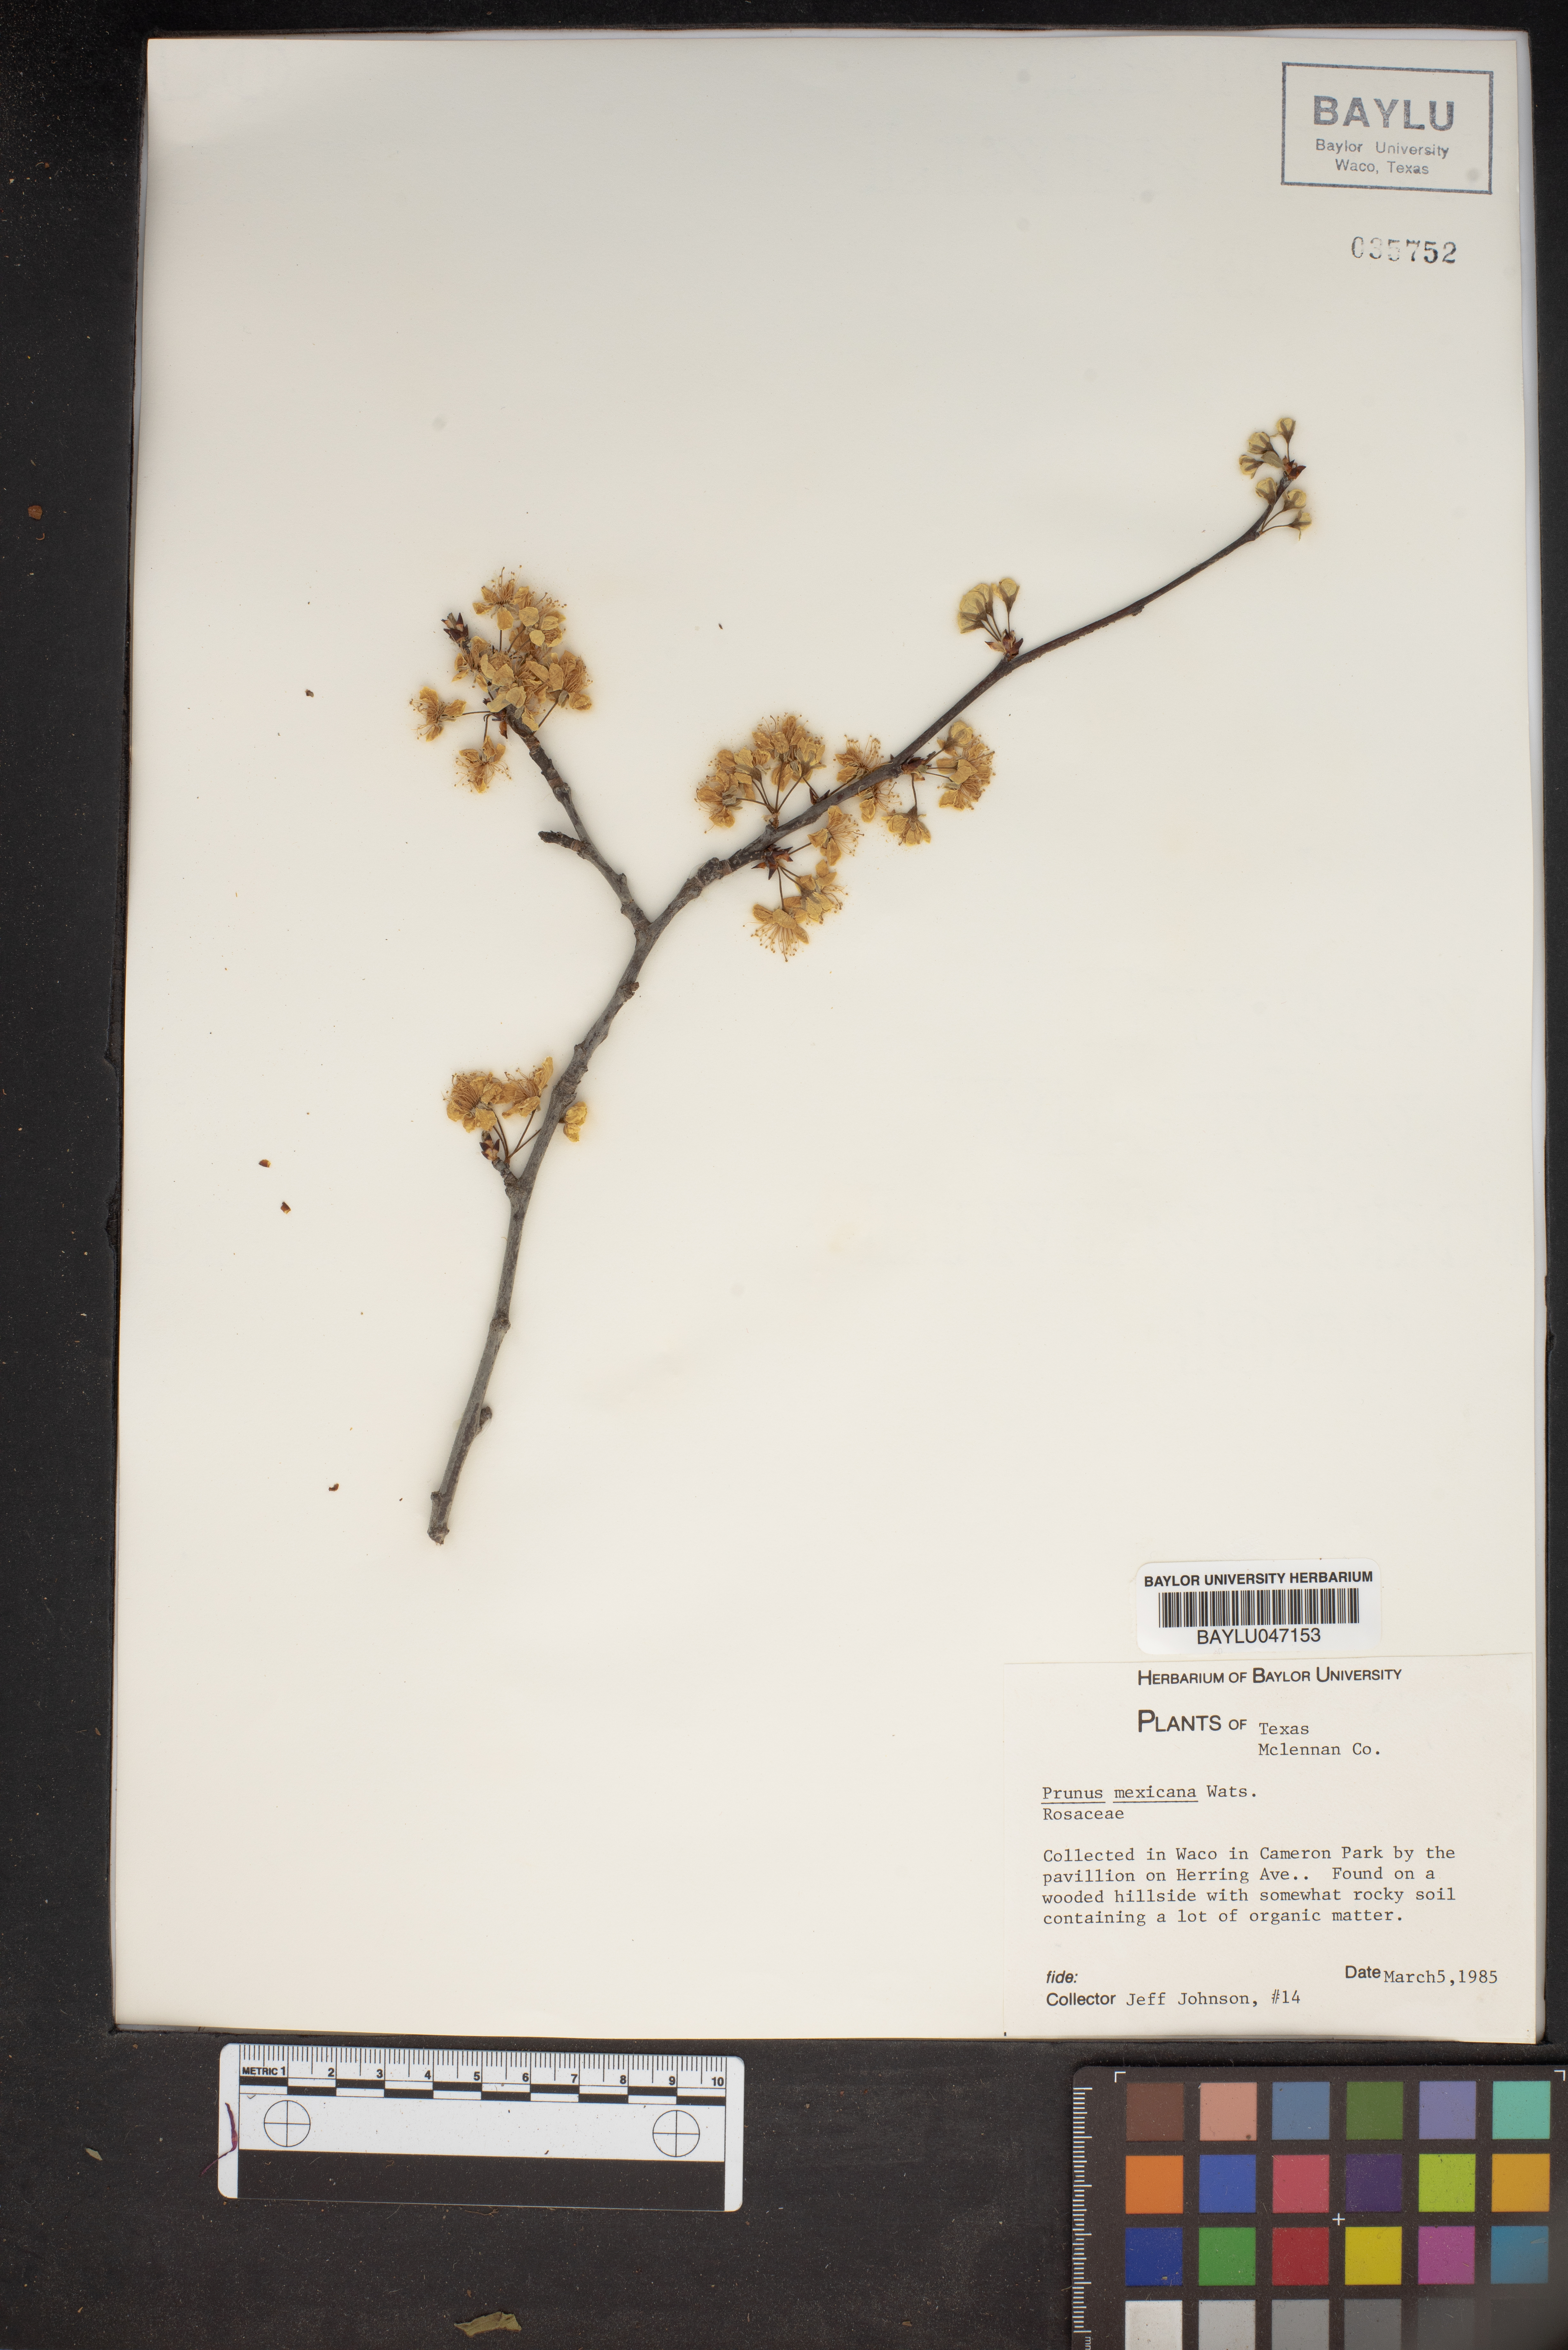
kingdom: Plantae
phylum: Tracheophyta
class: Magnoliopsida
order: Rosales
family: Rosaceae
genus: Prunus
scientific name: Prunus mexicana
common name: Mexican plum
